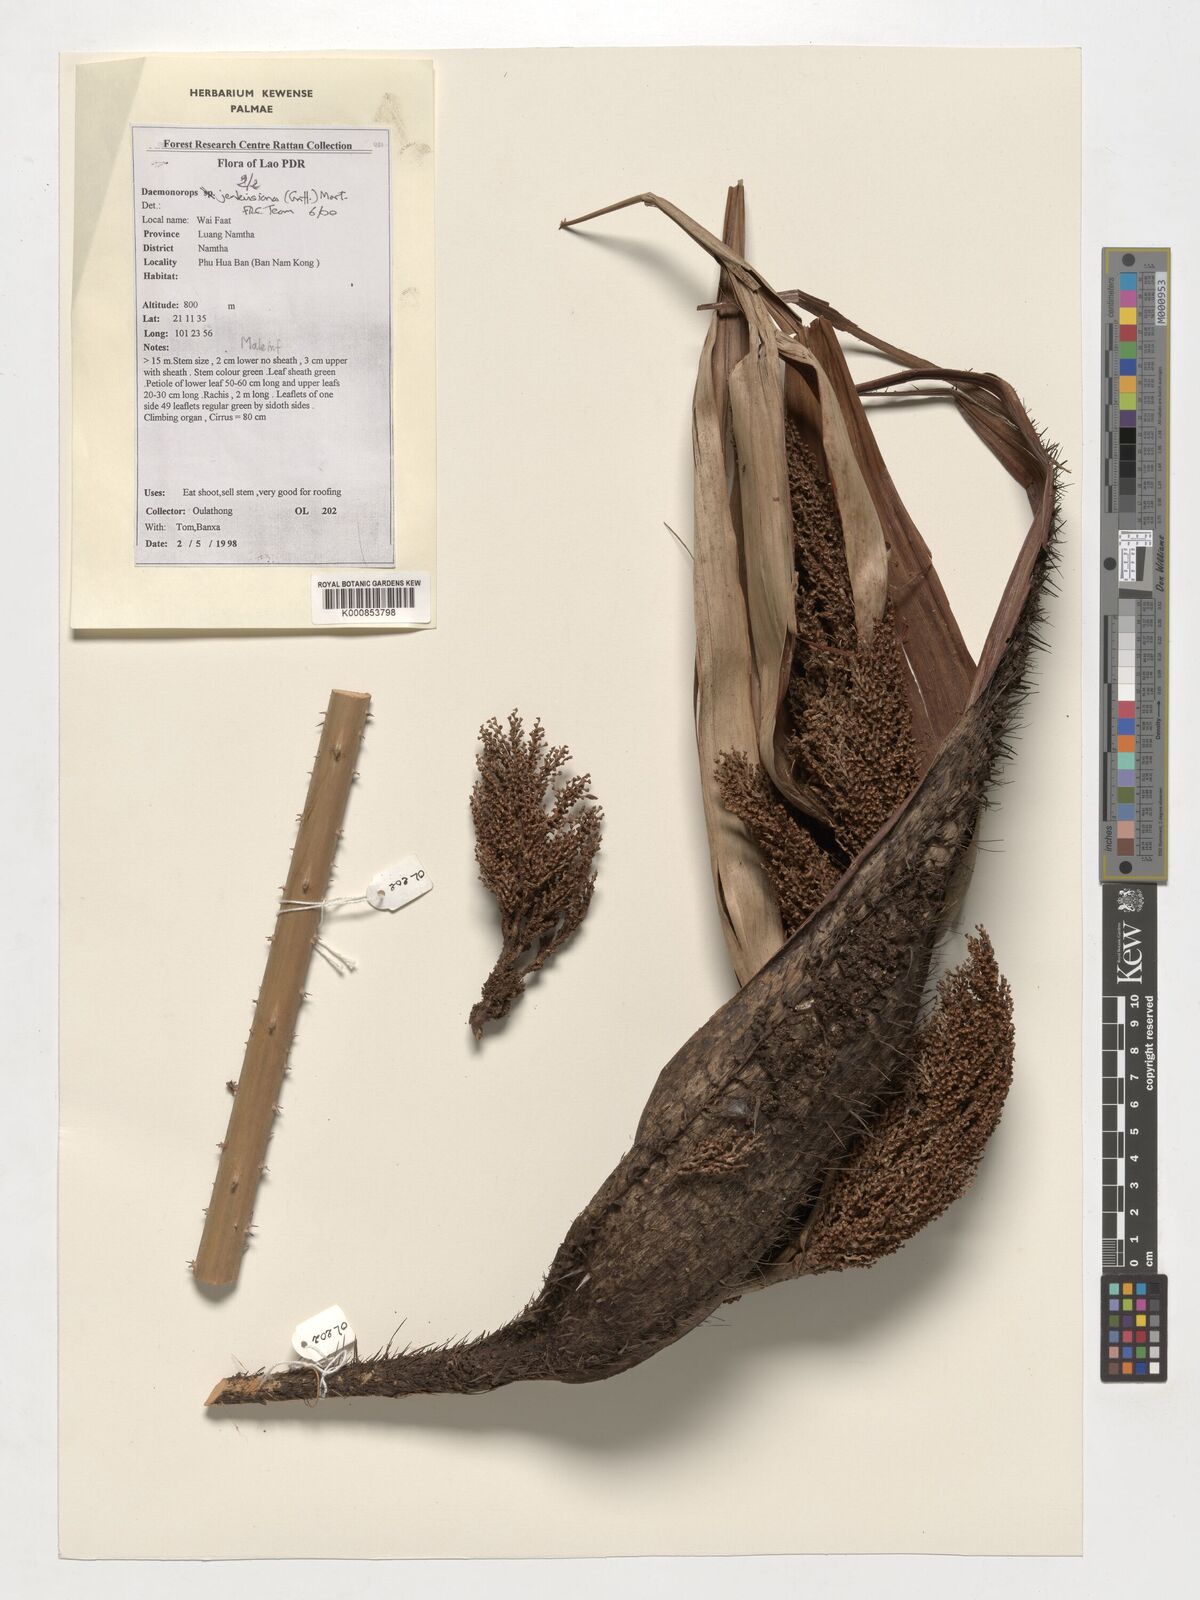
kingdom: Plantae
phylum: Tracheophyta
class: Liliopsida
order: Arecales
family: Arecaceae
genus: Calamus
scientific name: Calamus melanochaetes
